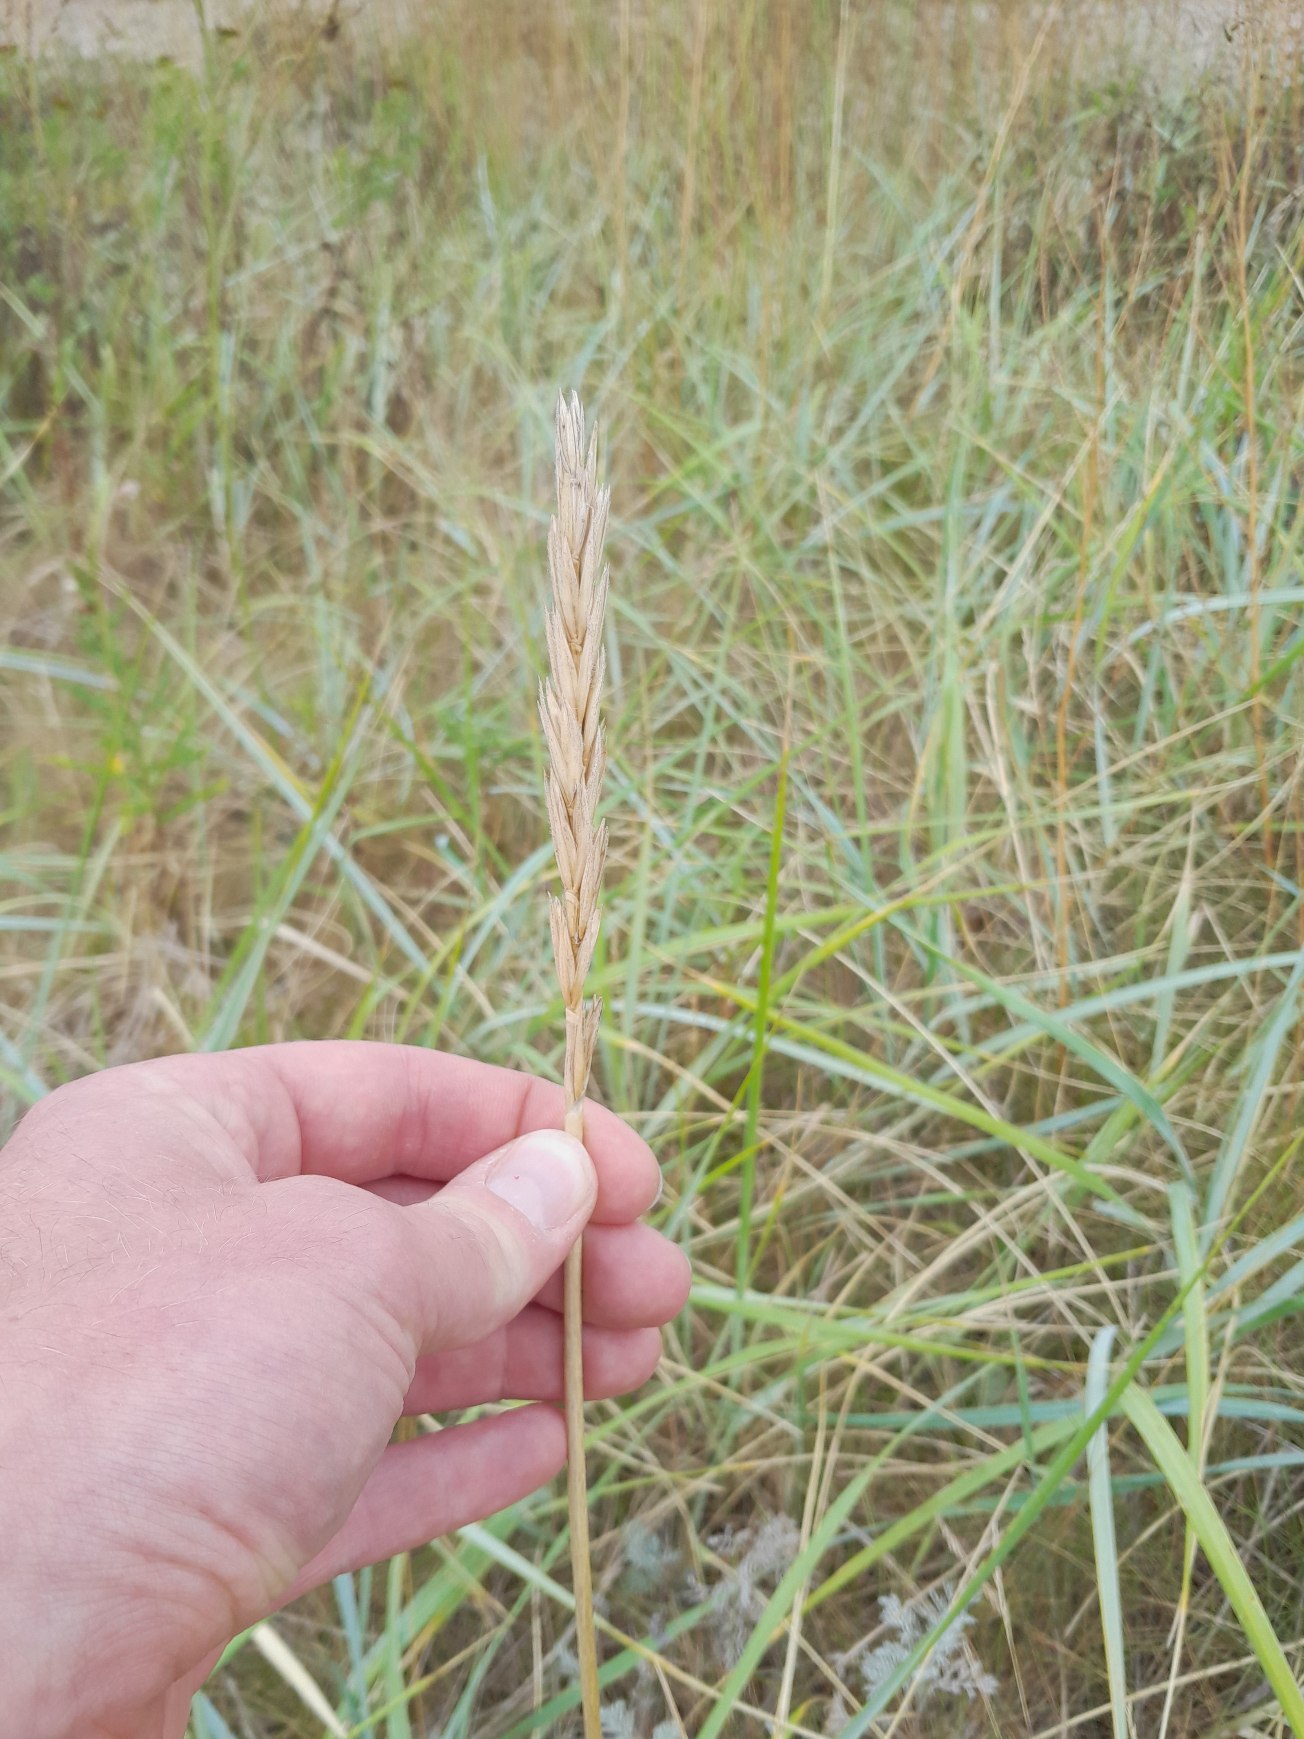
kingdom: Plantae
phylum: Tracheophyta
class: Liliopsida
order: Poales
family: Poaceae
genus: Leymus
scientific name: Leymus arenarius
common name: Marehalm
